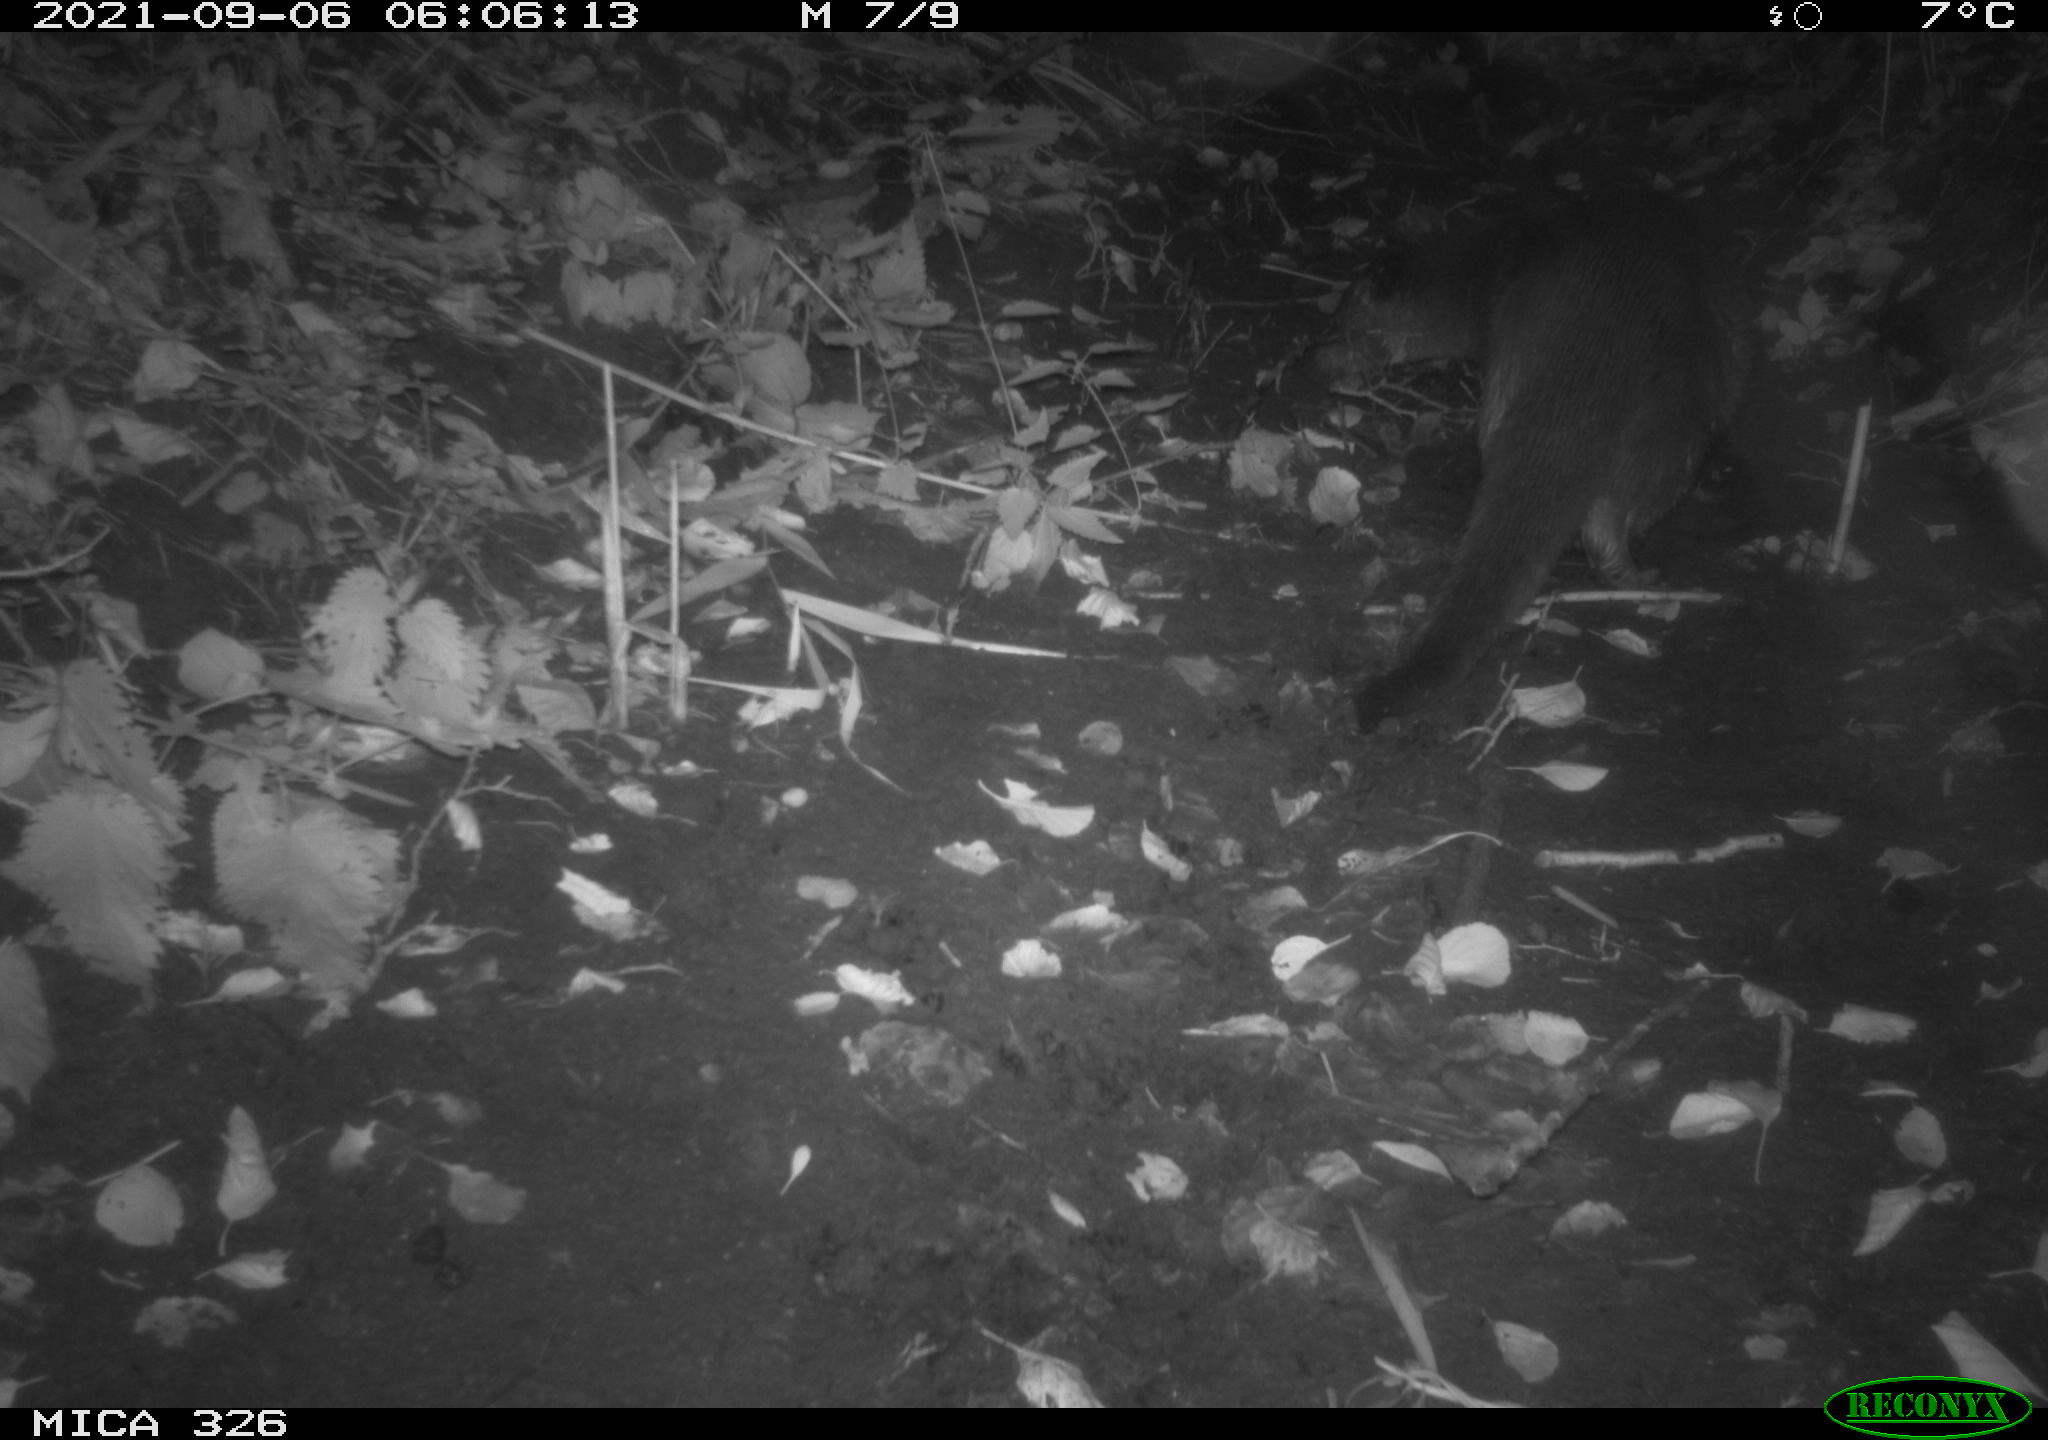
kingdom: Animalia
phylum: Chordata
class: Mammalia
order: Carnivora
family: Mustelidae
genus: Lutra
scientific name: Lutra lutra
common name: European otter
